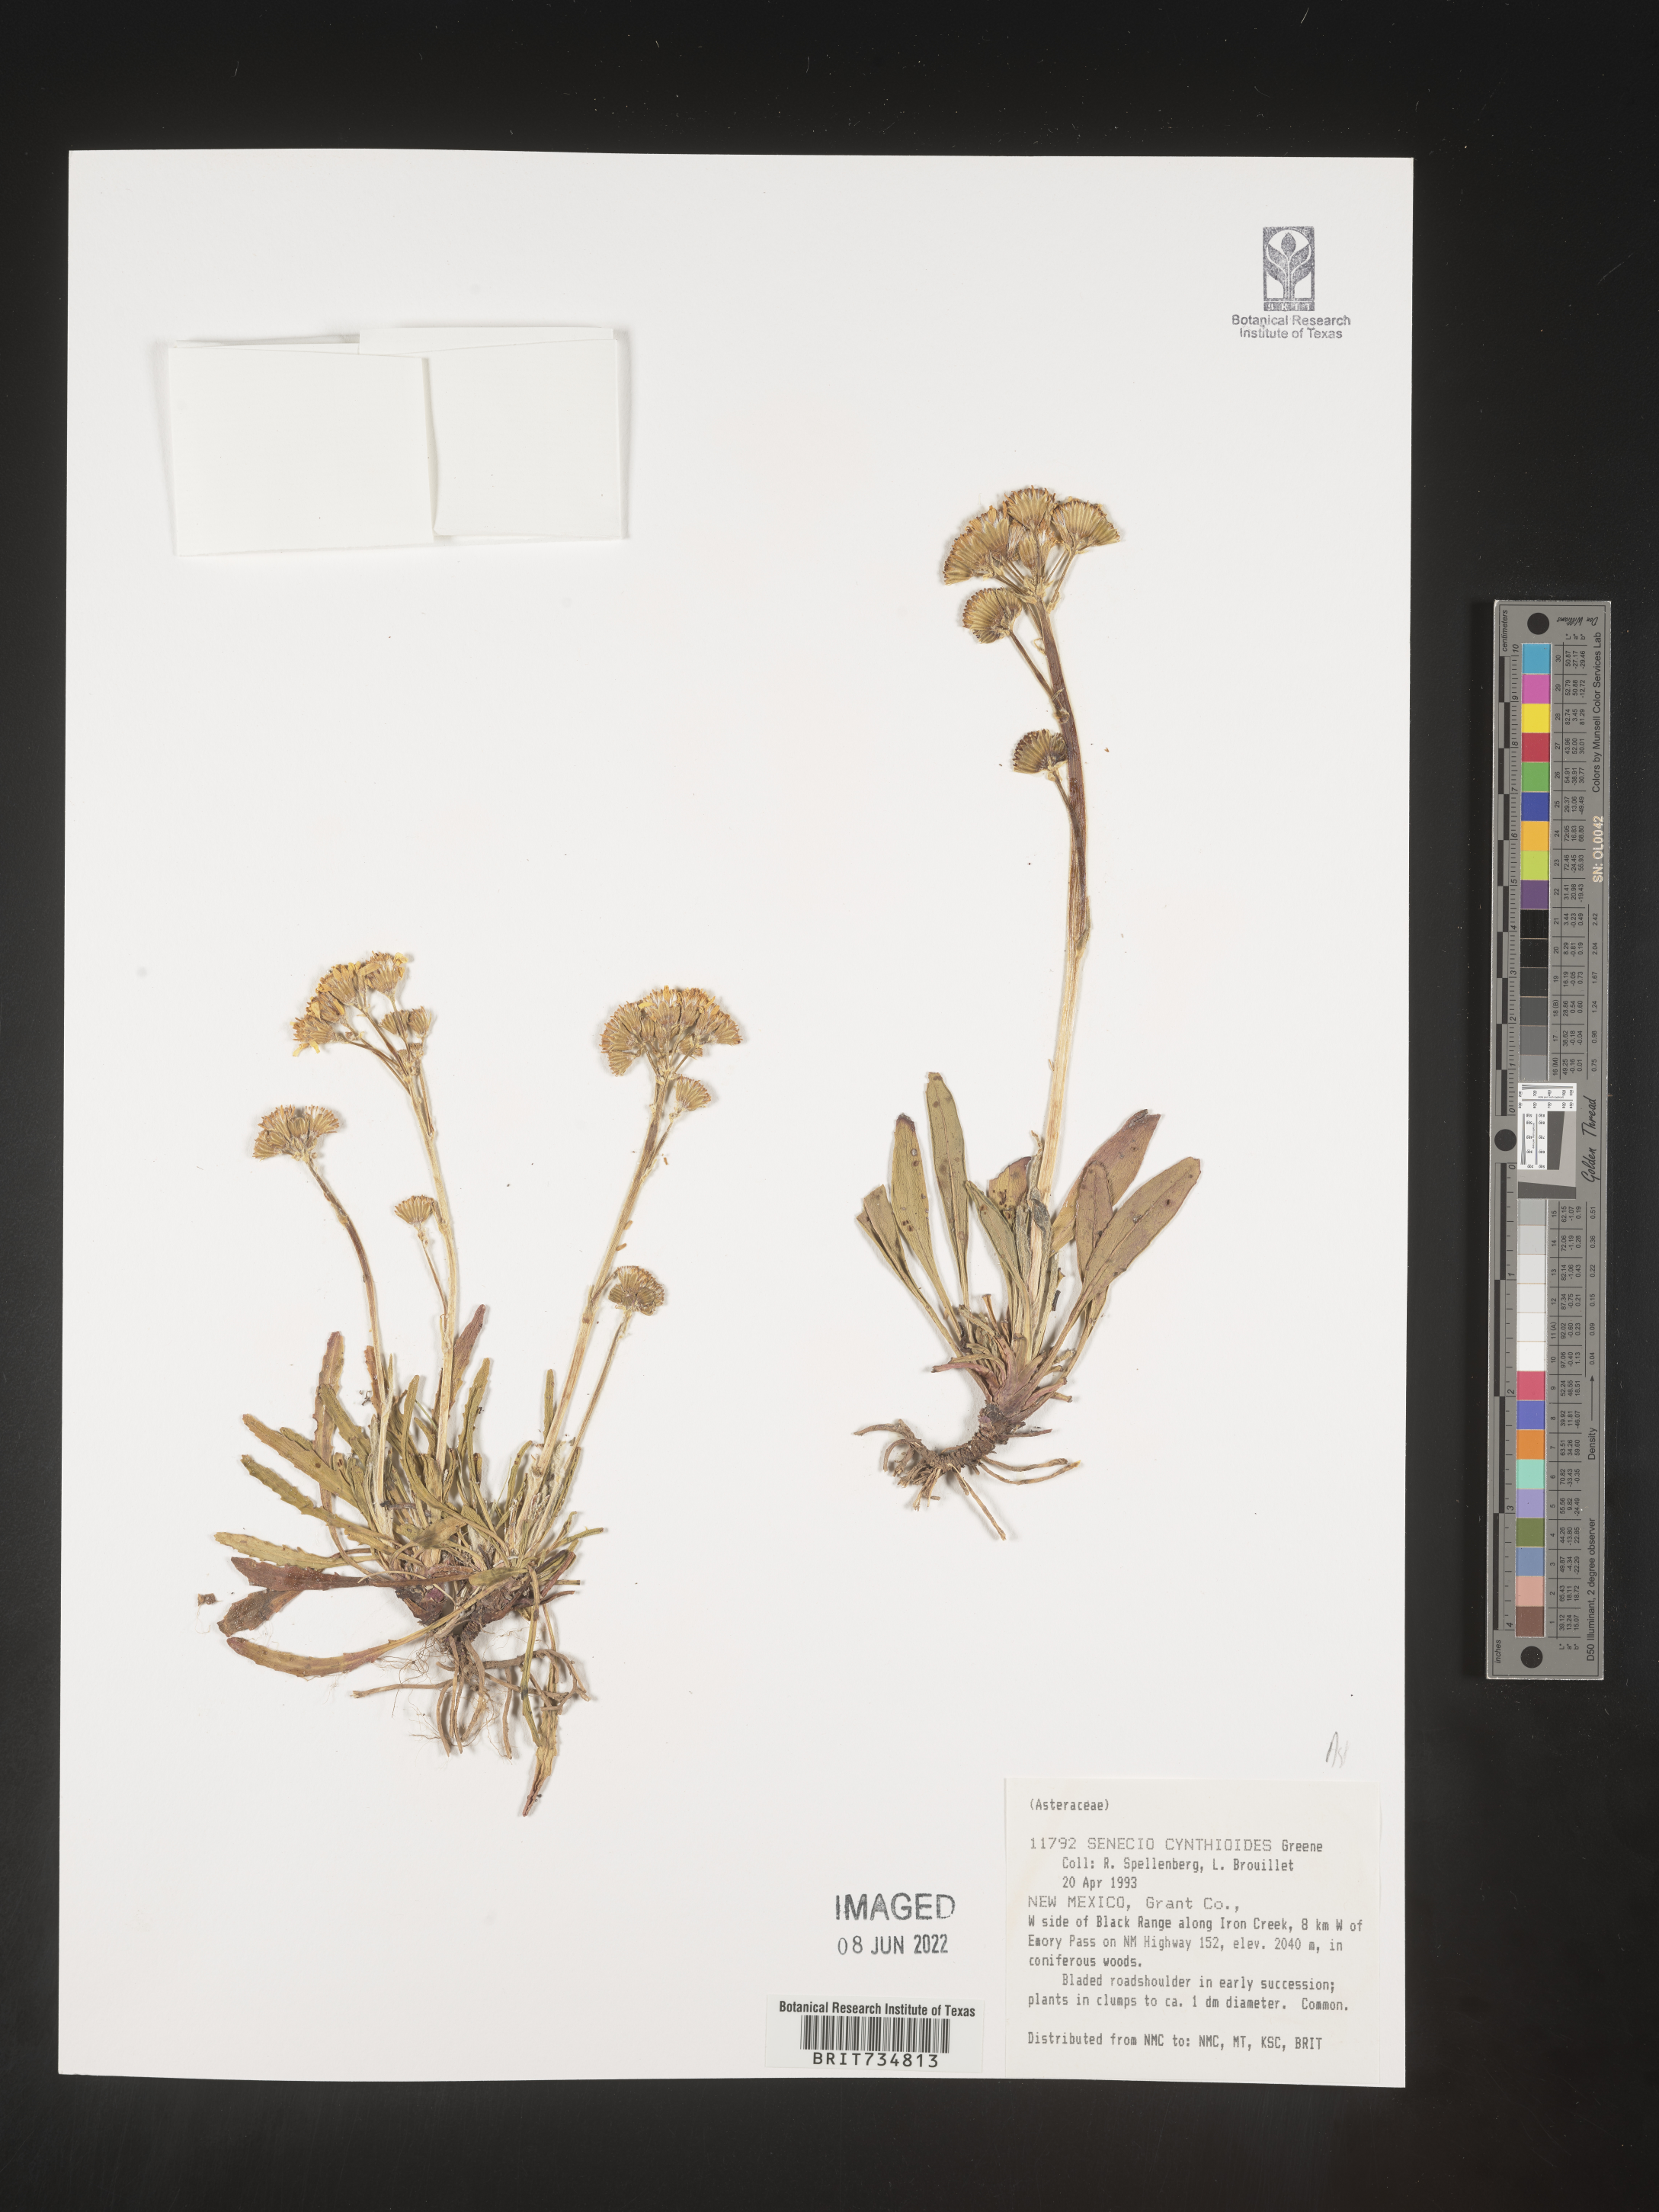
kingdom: Plantae
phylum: Tracheophyta
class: Magnoliopsida
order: Asterales
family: Asteraceae
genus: Packera
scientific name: Packera
